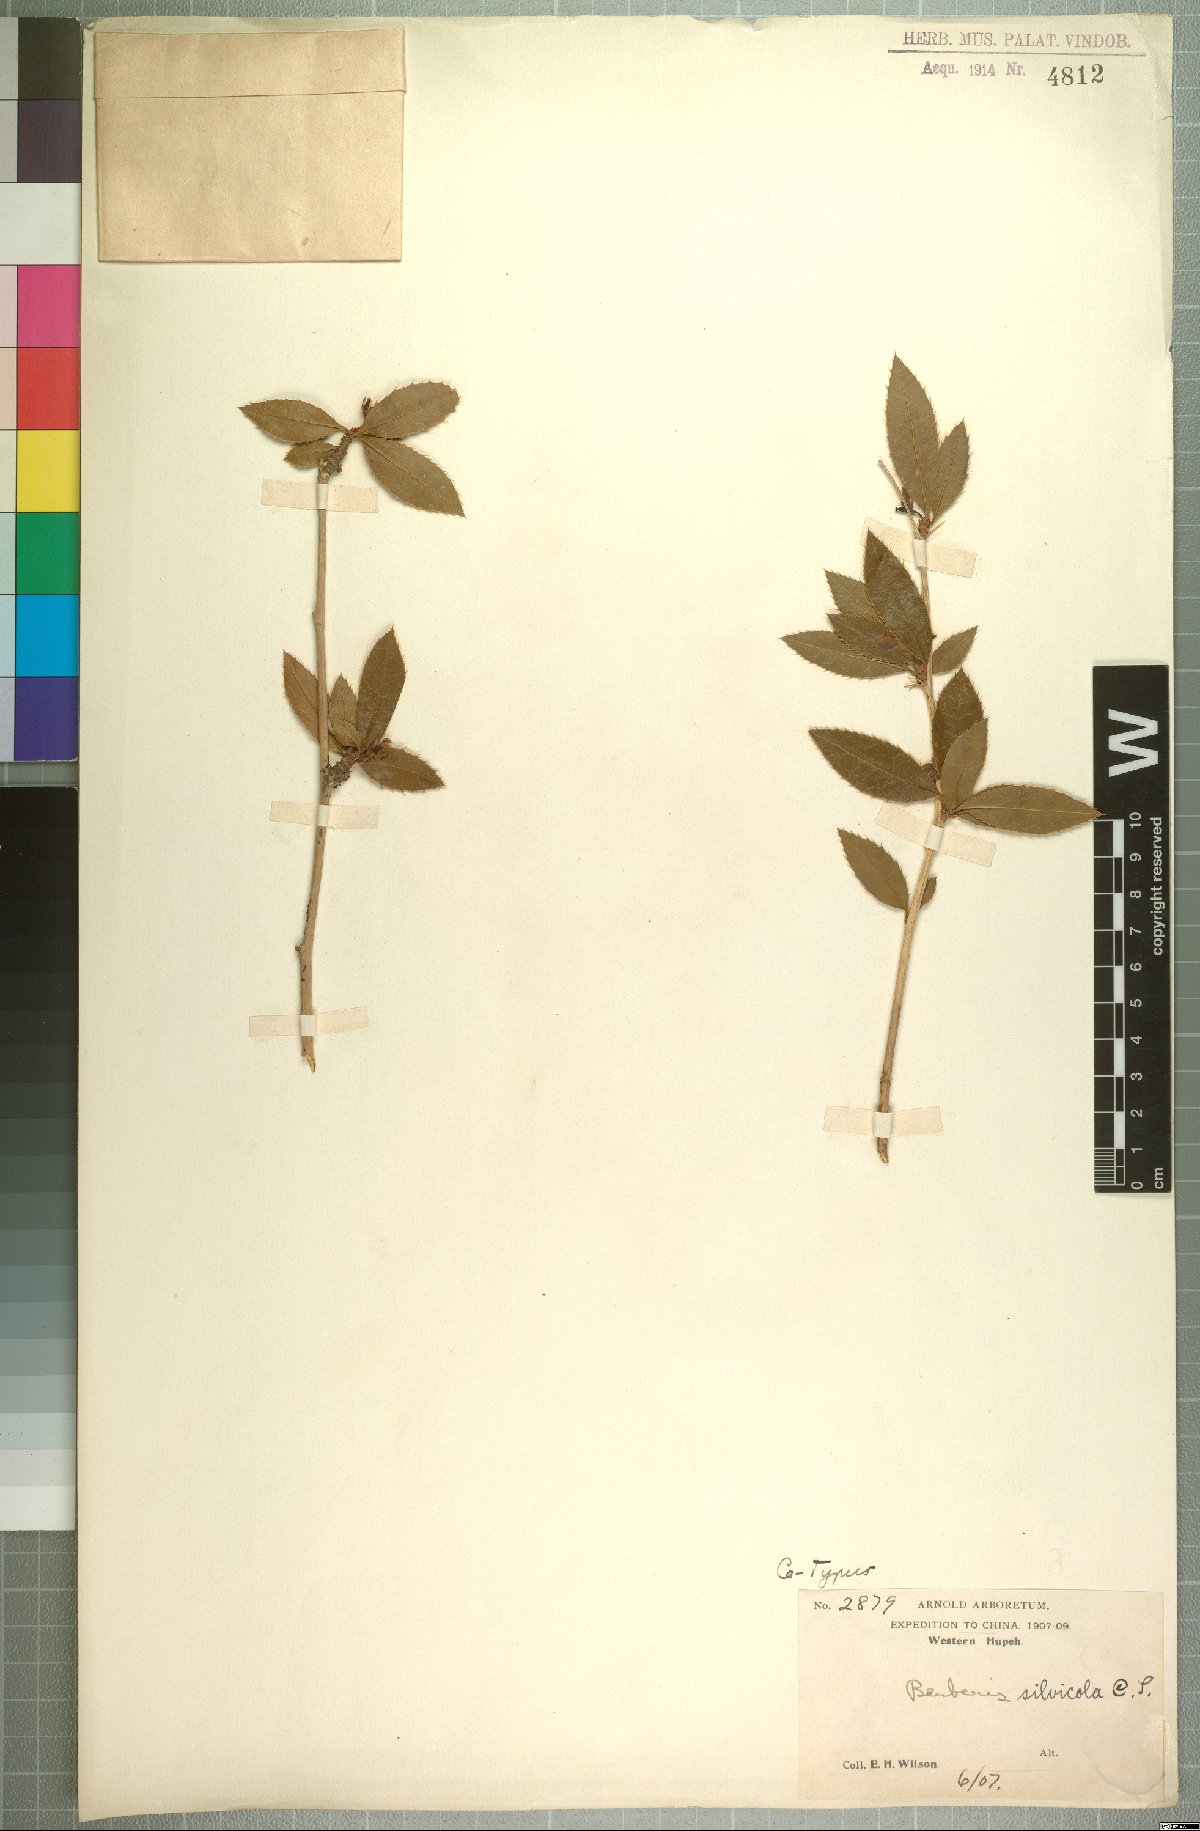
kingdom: Plantae
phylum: Tracheophyta
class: Magnoliopsida
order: Ranunculales
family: Berberidaceae
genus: Berberis
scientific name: Berberis silvicola
